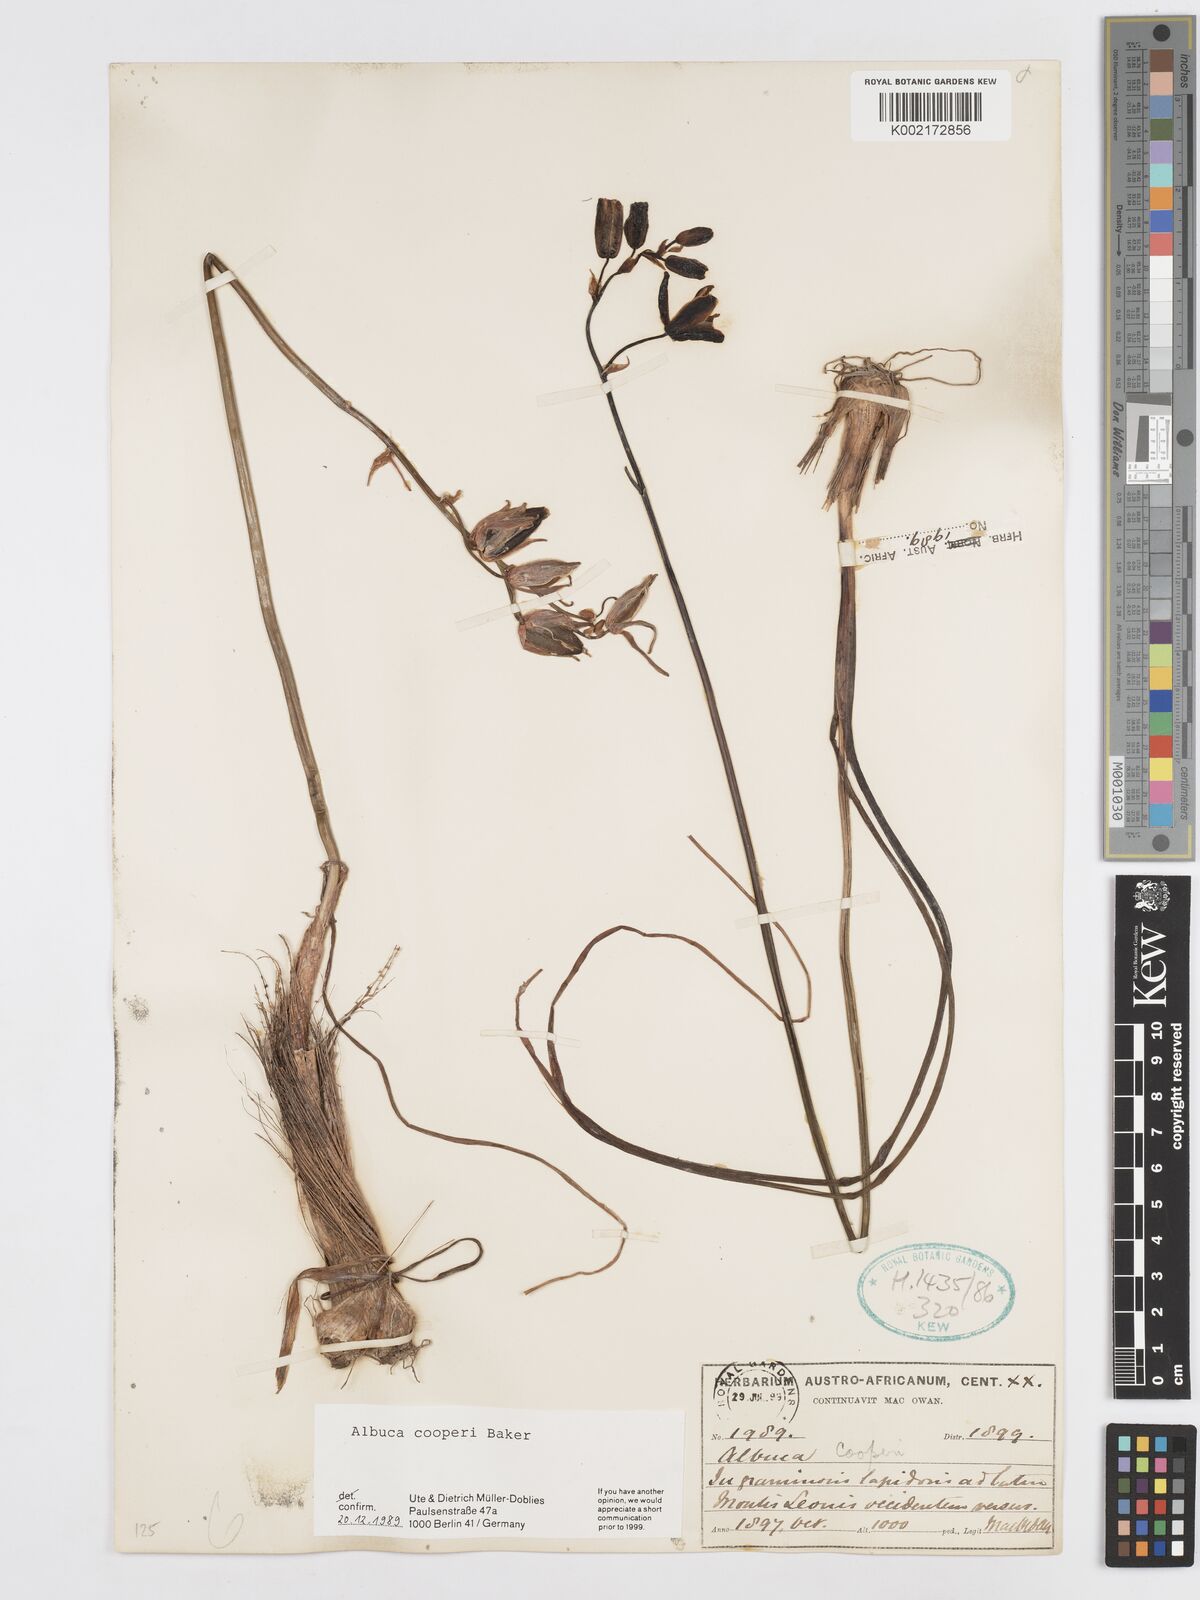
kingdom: Plantae
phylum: Tracheophyta
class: Liliopsida
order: Asparagales
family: Asparagaceae
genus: Albuca
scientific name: Albuca cooperi
